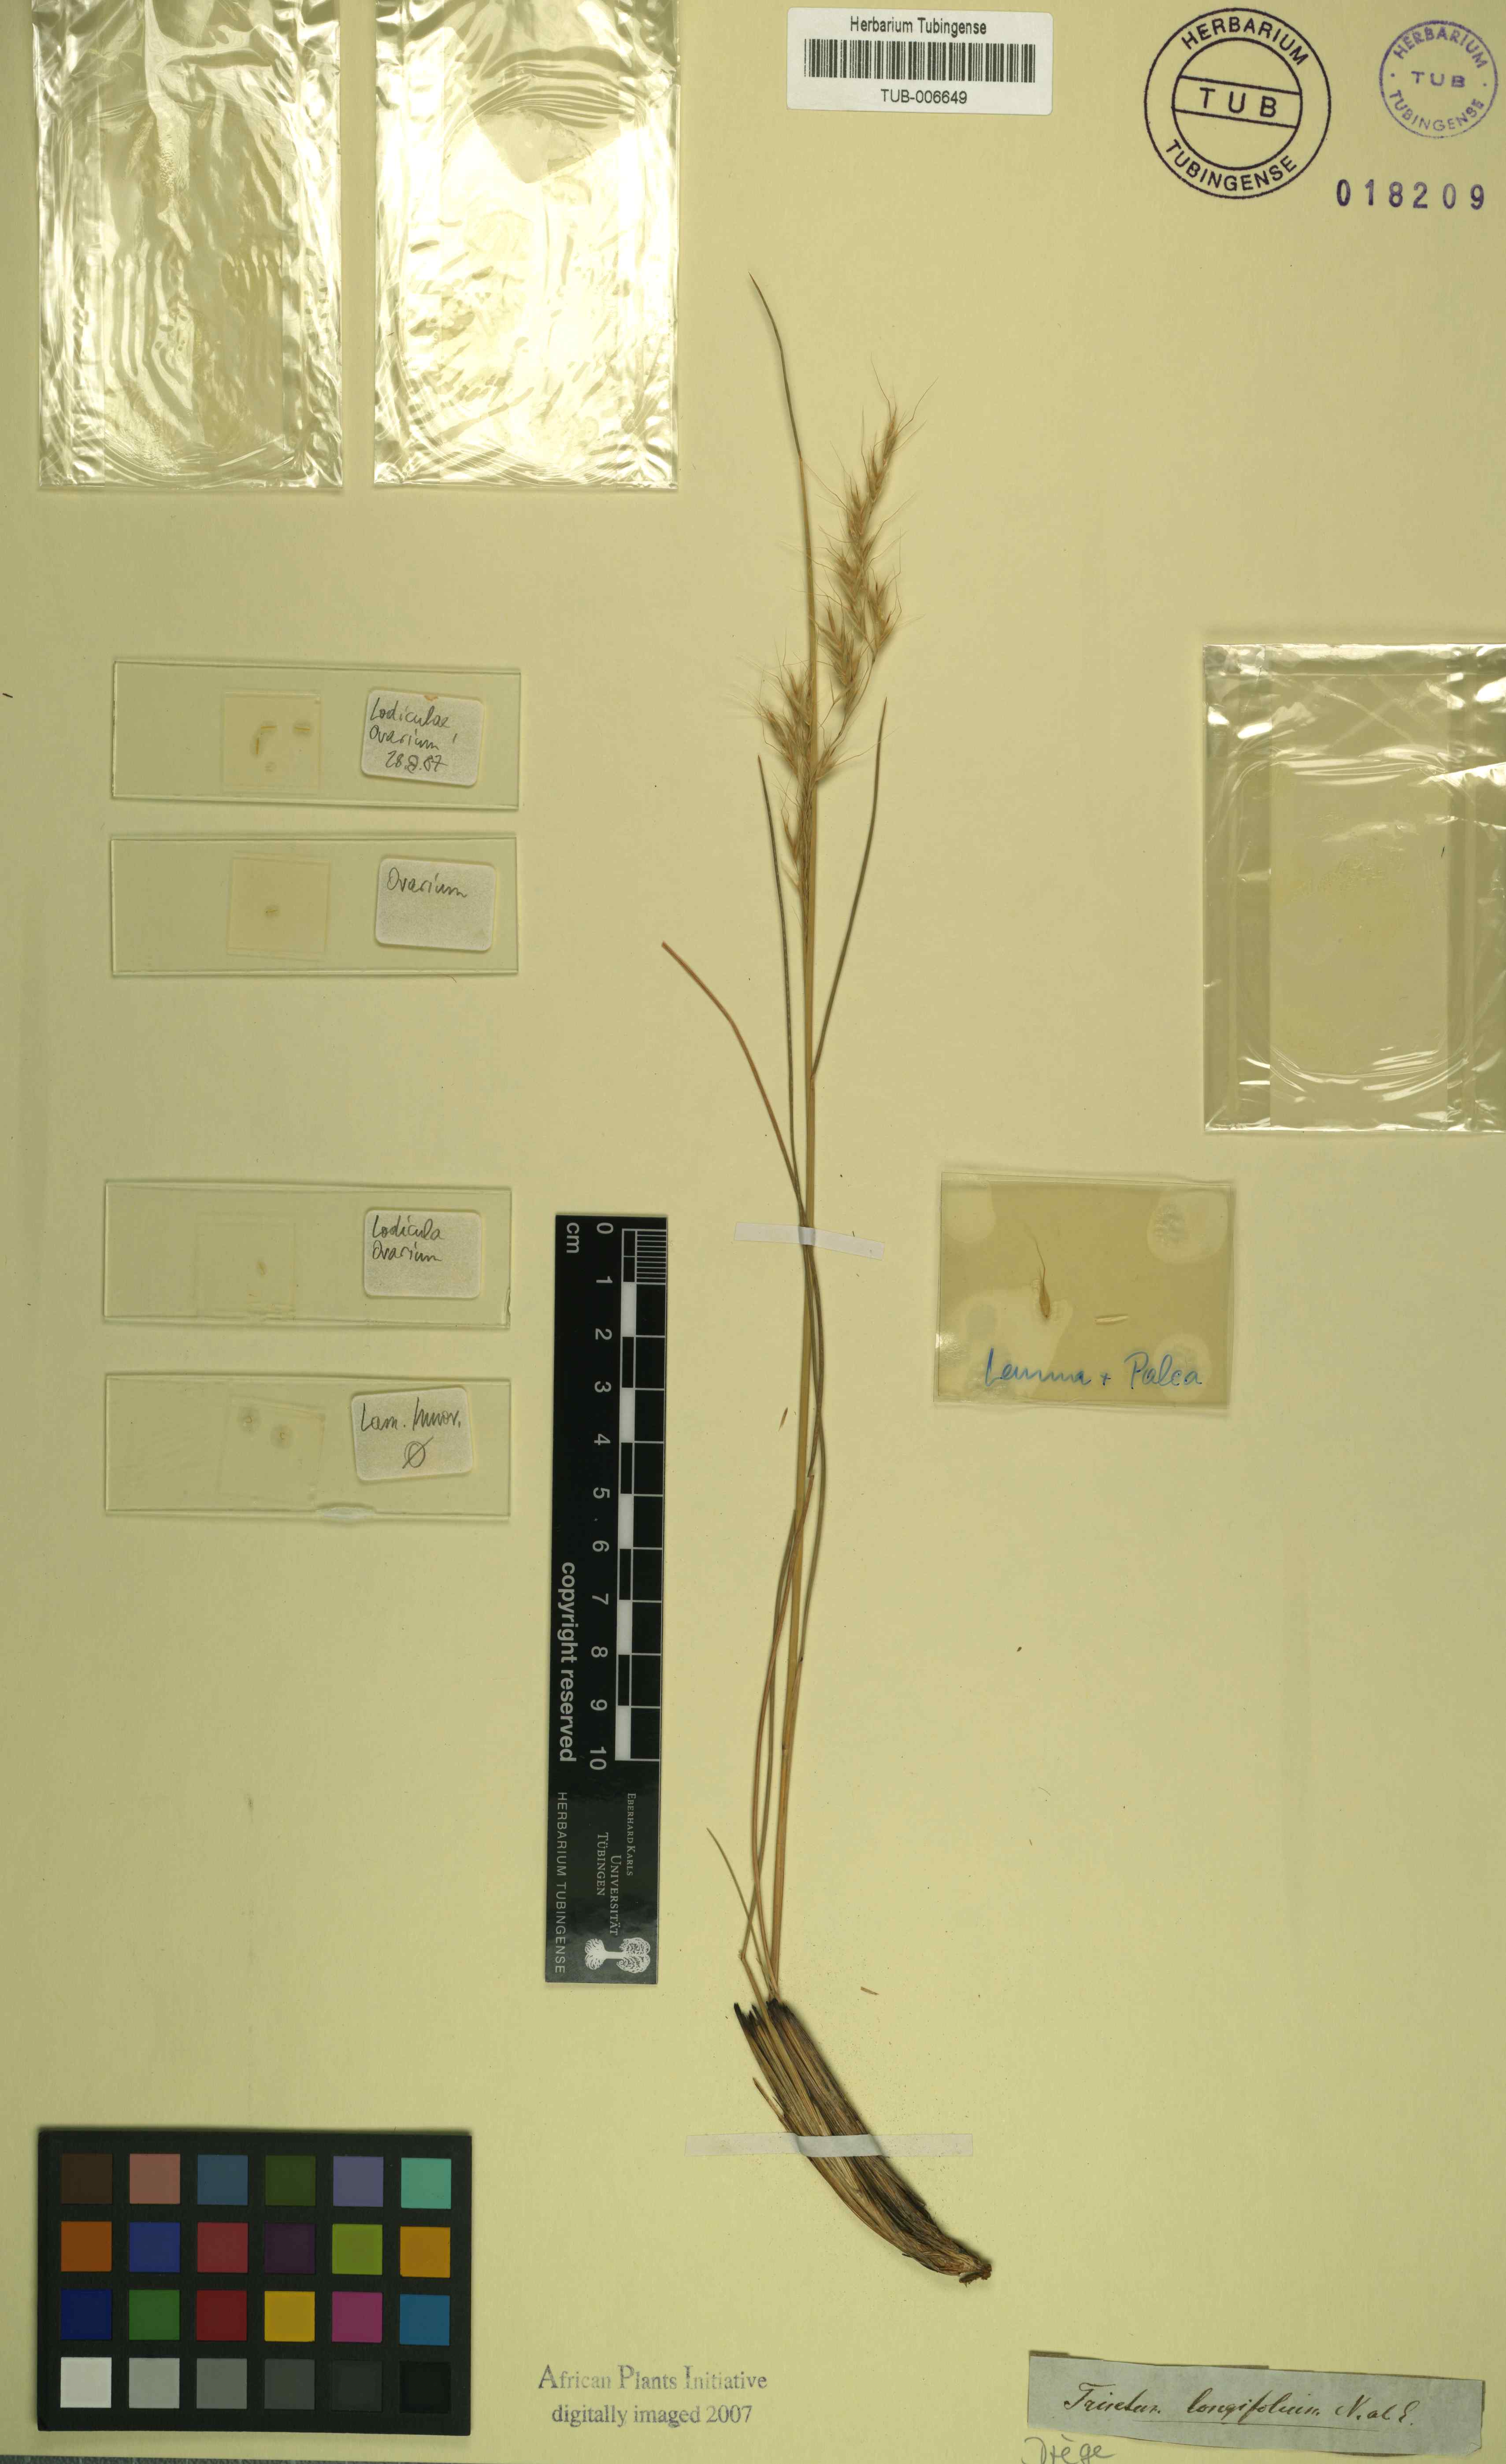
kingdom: Plantae
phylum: Tracheophyta
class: Liliopsida
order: Poales
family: Poaceae
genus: Trisetopsis
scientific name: Trisetopsis longifolia
